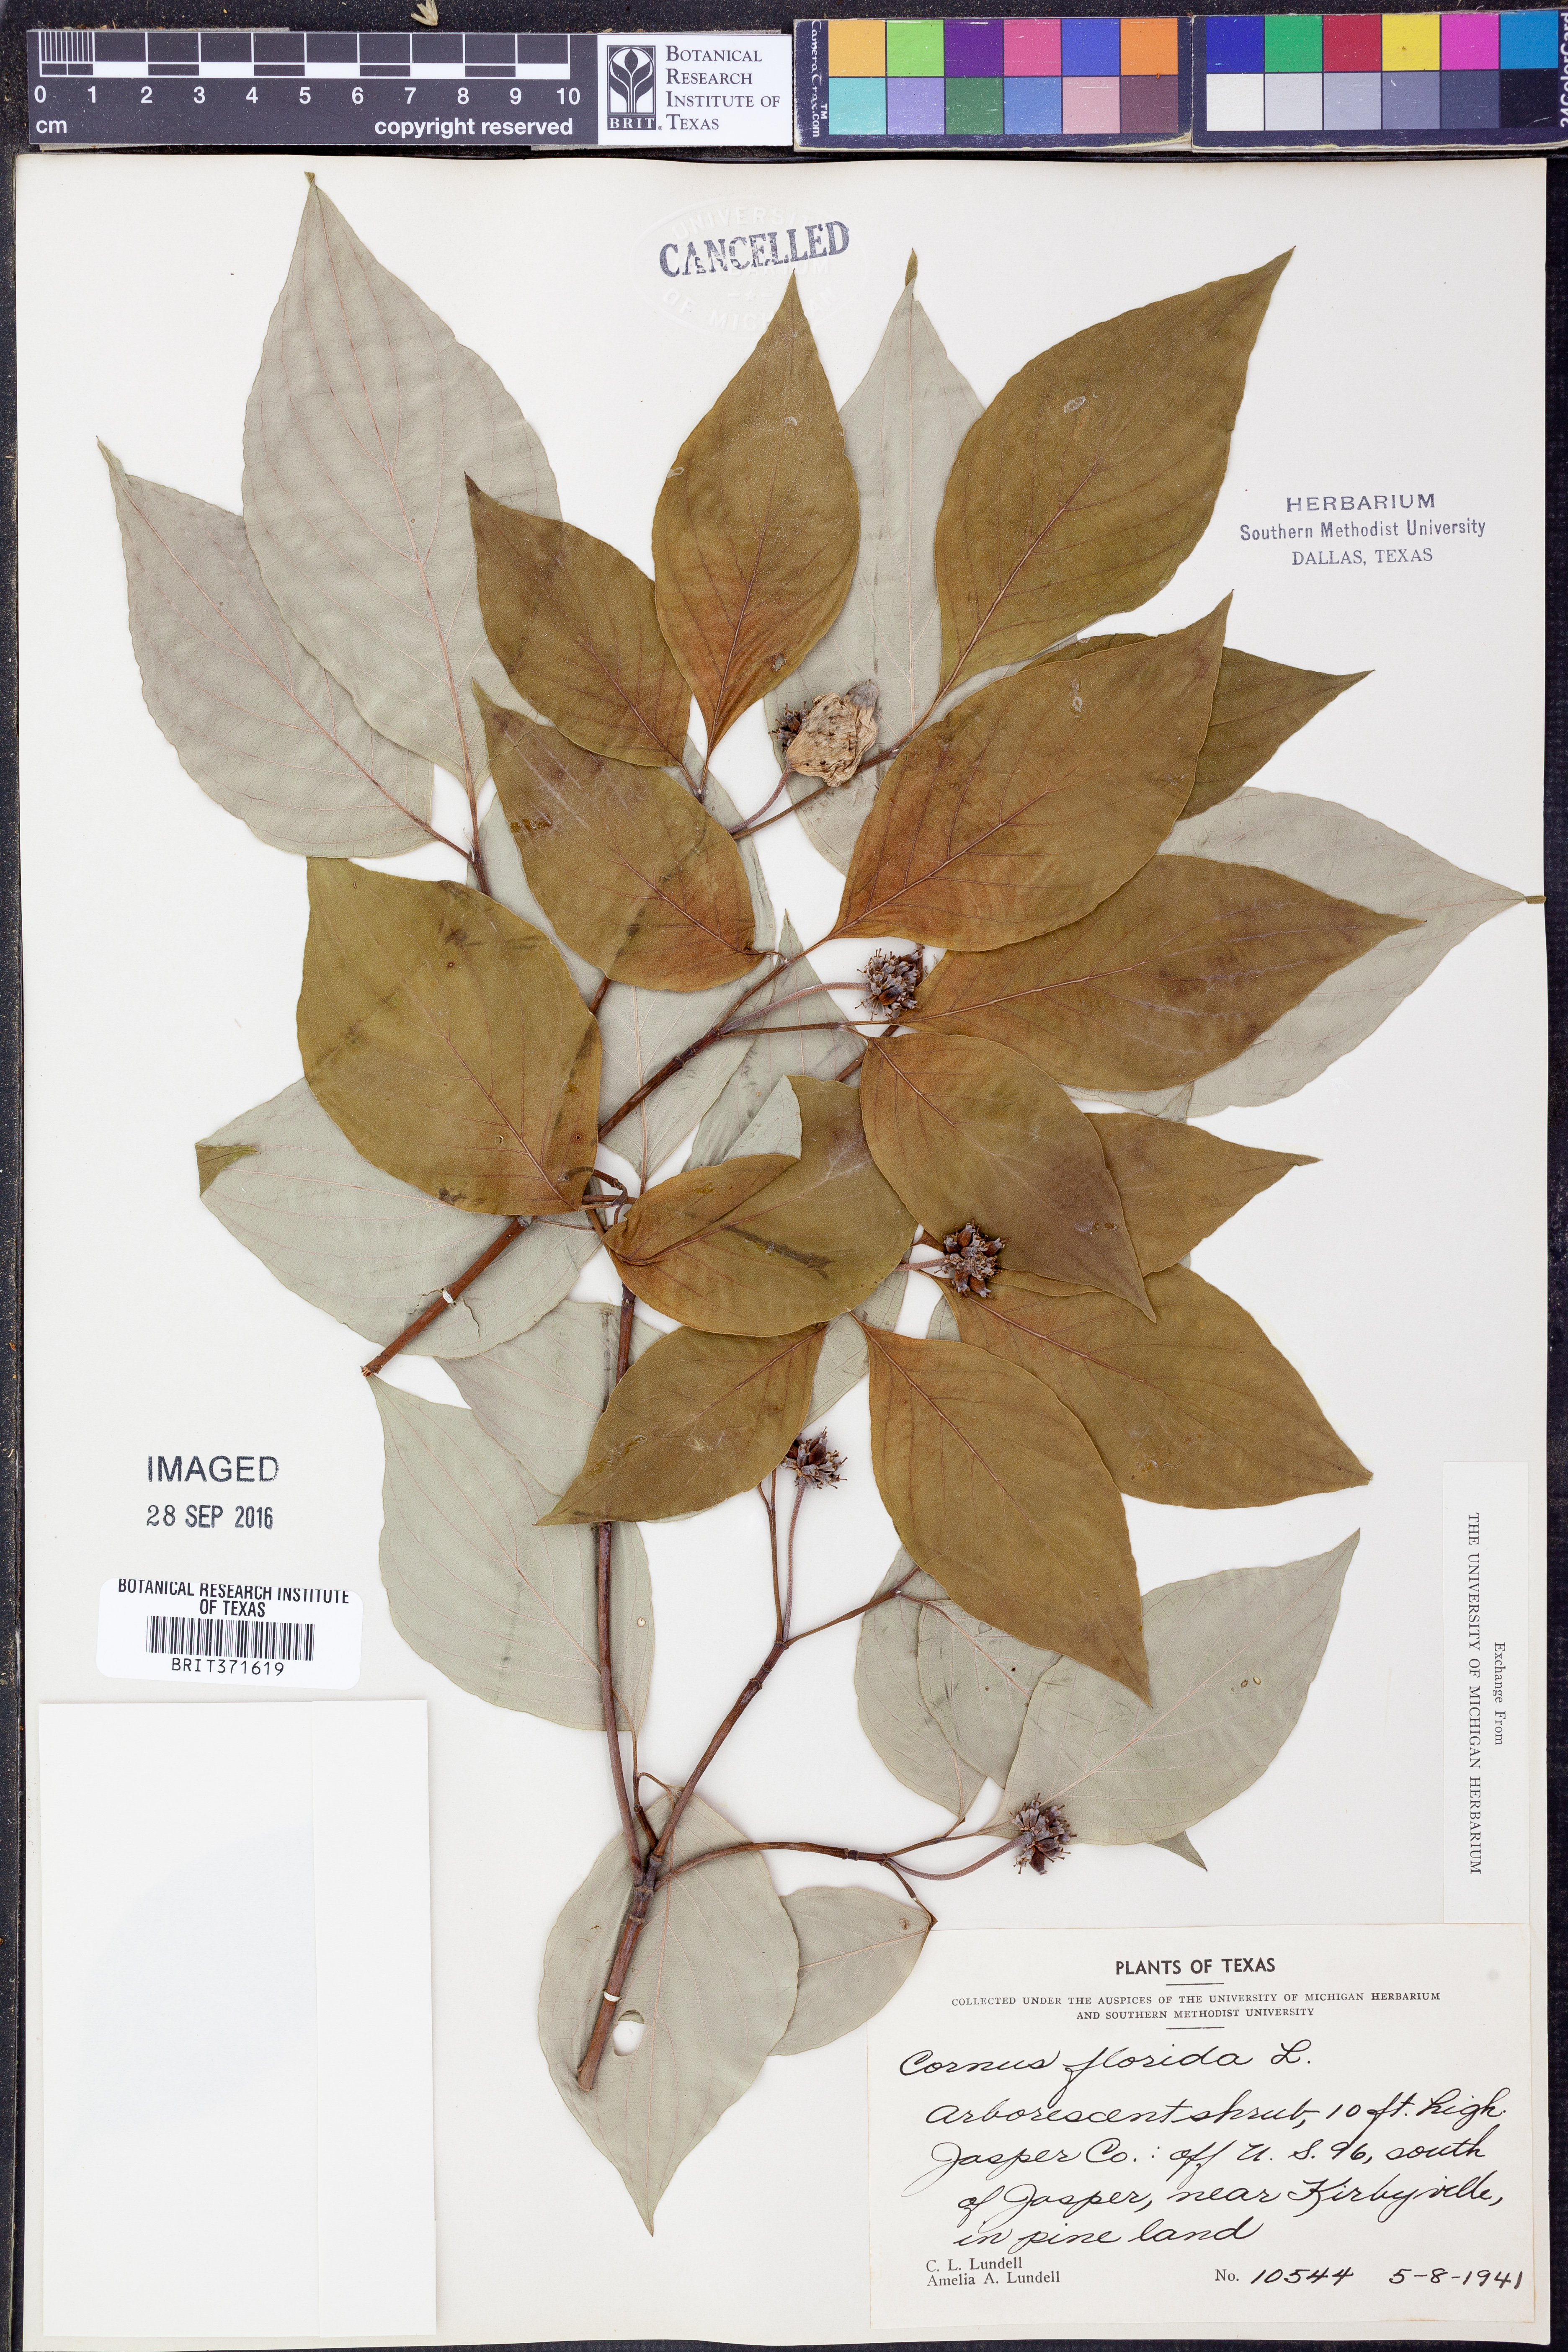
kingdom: Plantae
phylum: Tracheophyta
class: Magnoliopsida
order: Cornales
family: Cornaceae
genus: Cornus
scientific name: Cornus florida
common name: Flowering dogwood
